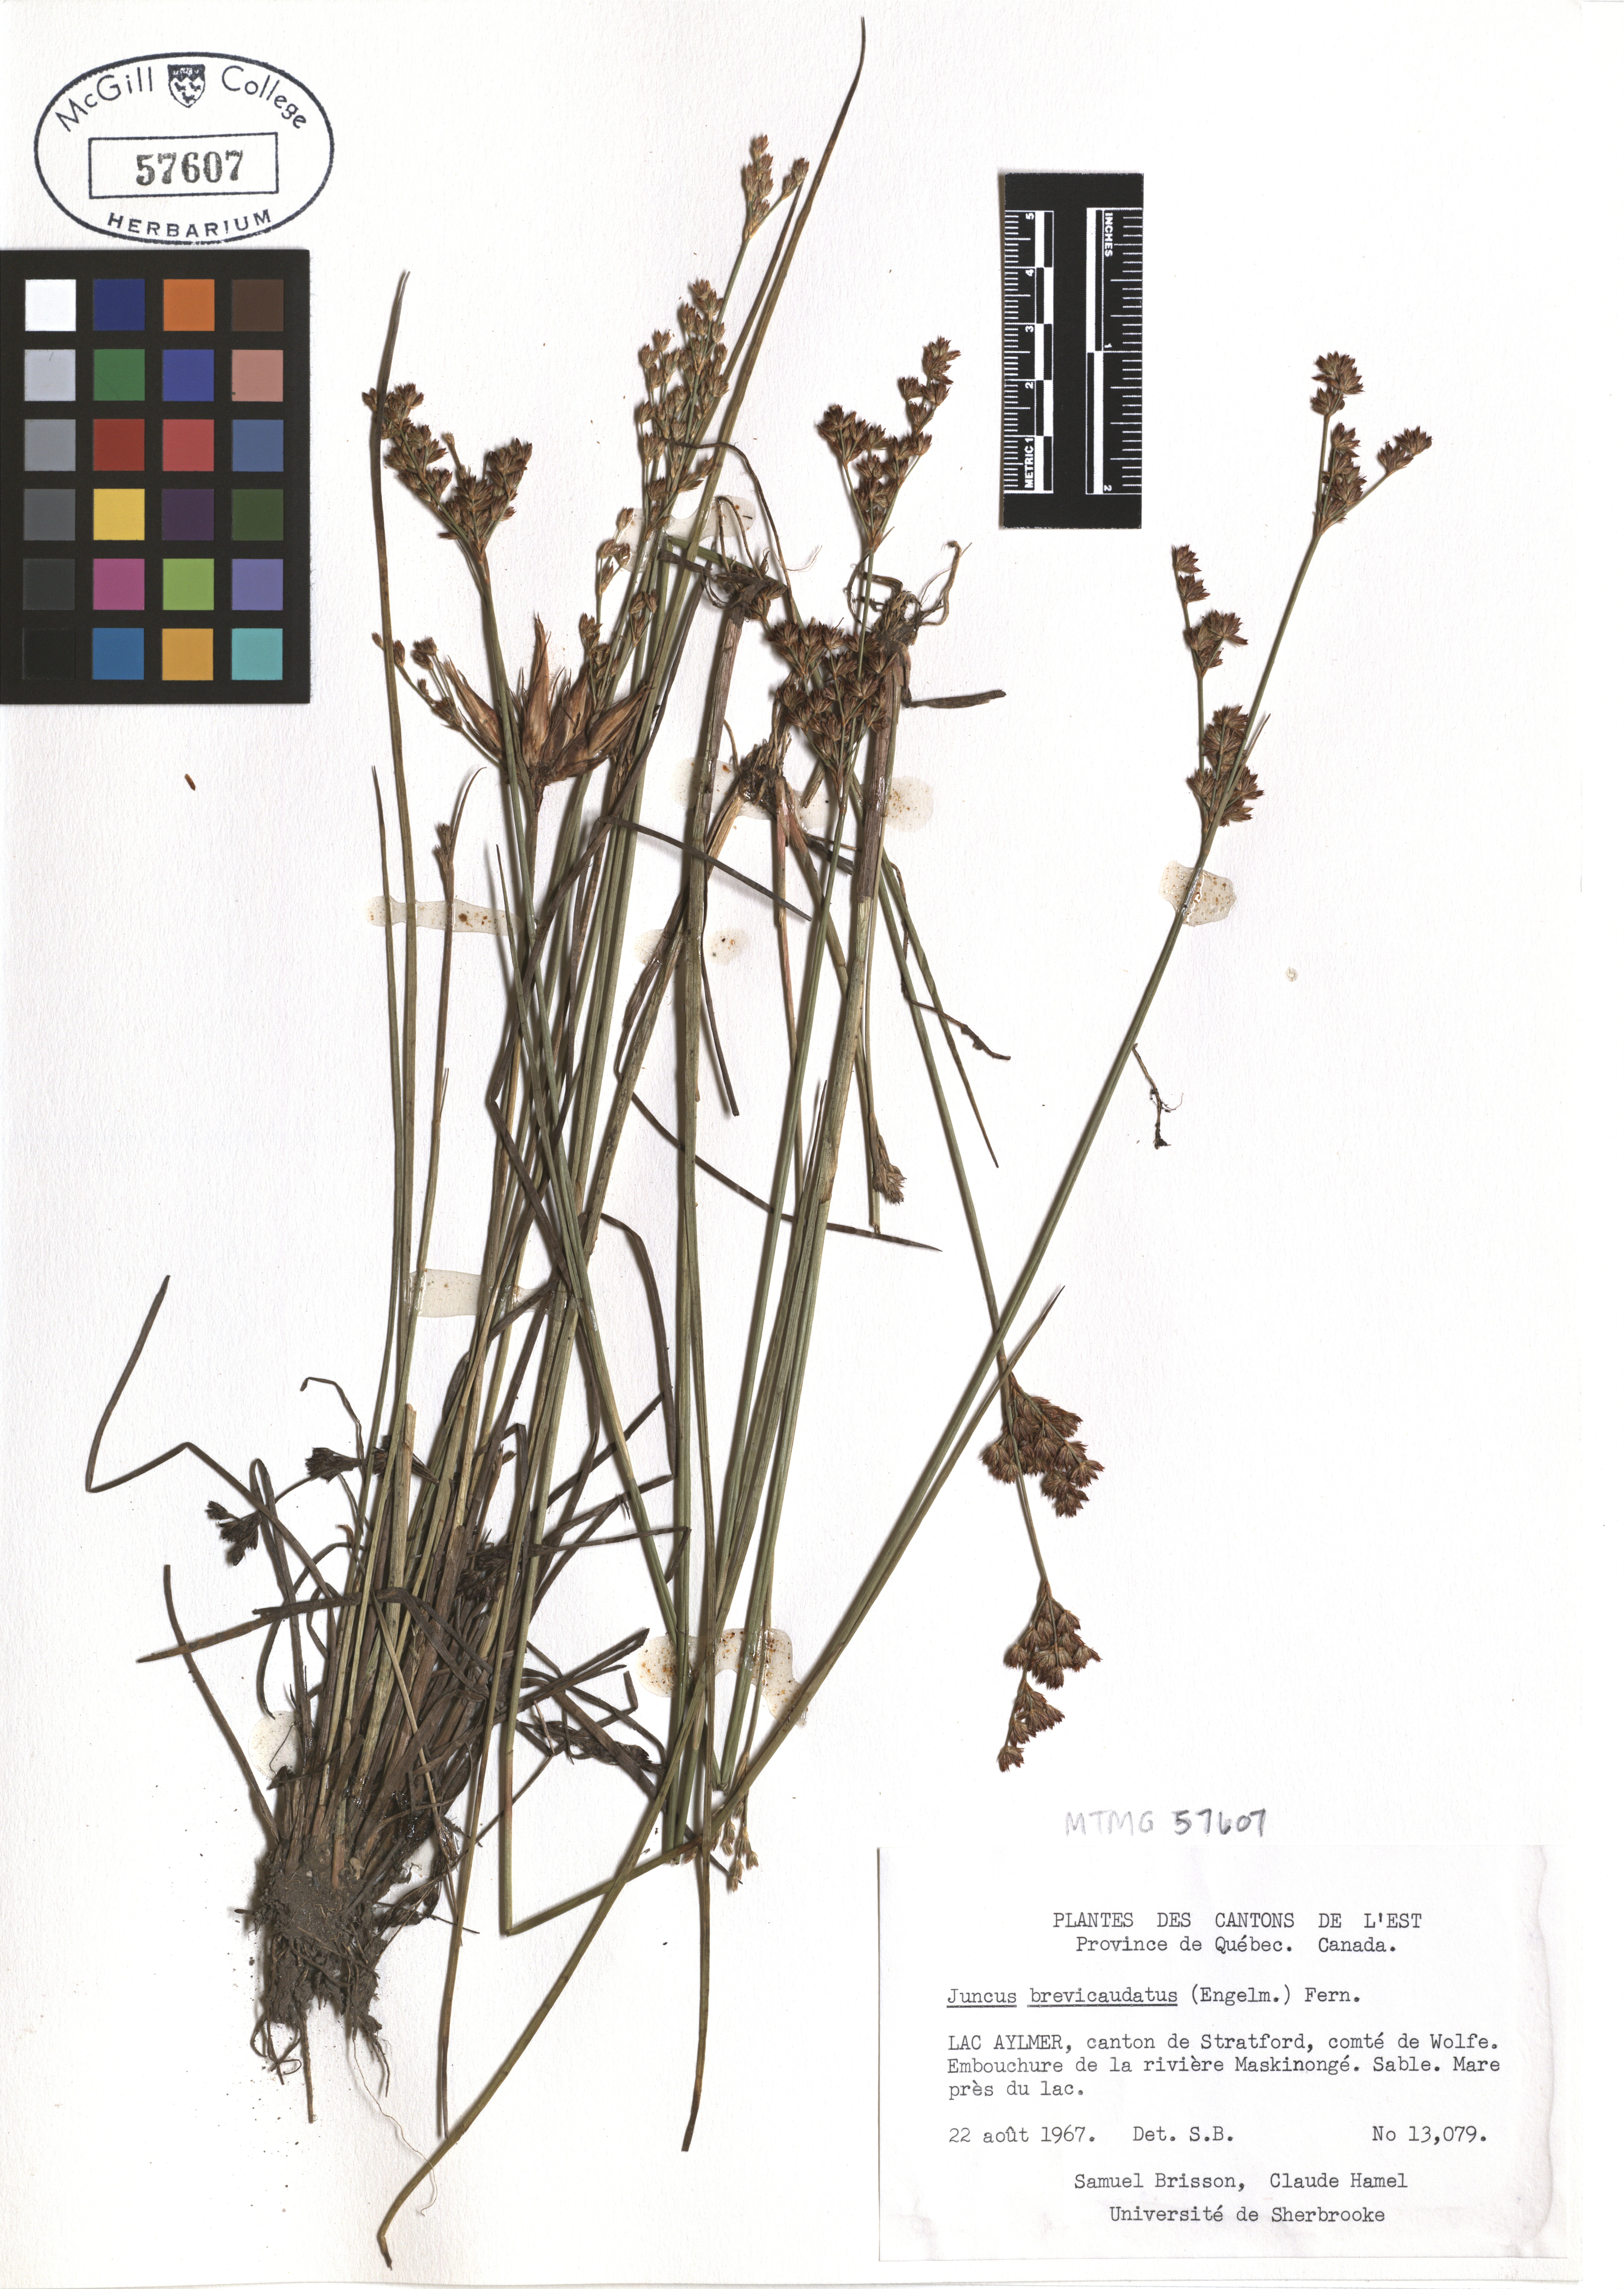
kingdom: Plantae
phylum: Tracheophyta
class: Liliopsida
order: Poales
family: Juncaceae
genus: Juncus
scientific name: Juncus brevicaudatus
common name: Narrow-panicle rush
